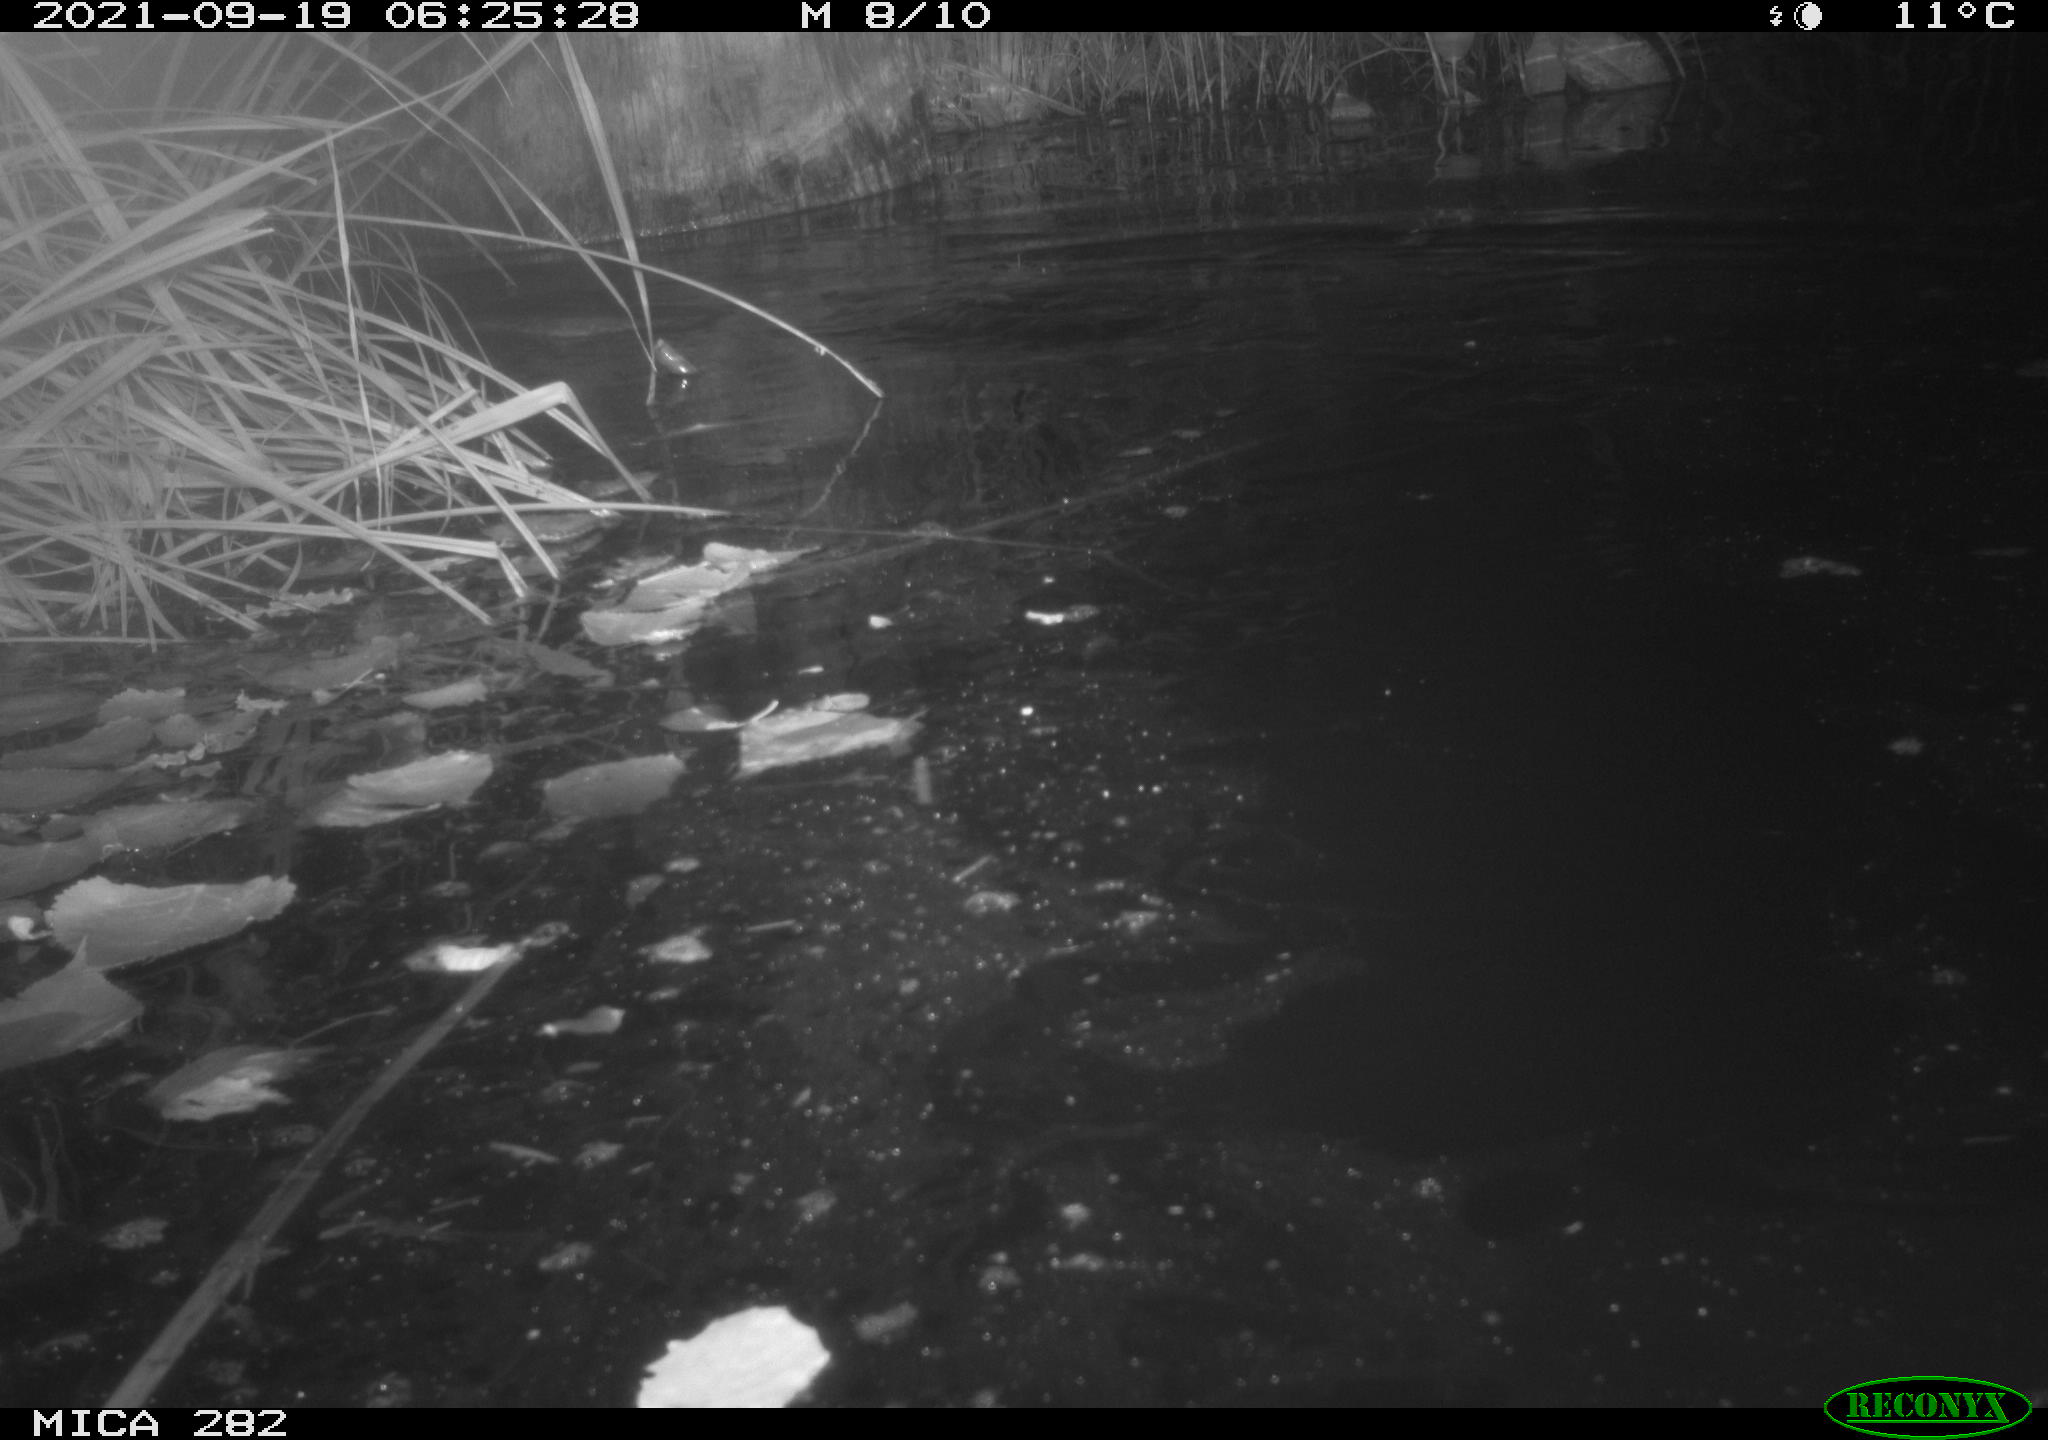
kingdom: Animalia
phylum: Chordata
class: Mammalia
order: Rodentia
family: Castoridae
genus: Castor
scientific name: Castor fiber
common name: Eurasian beaver
